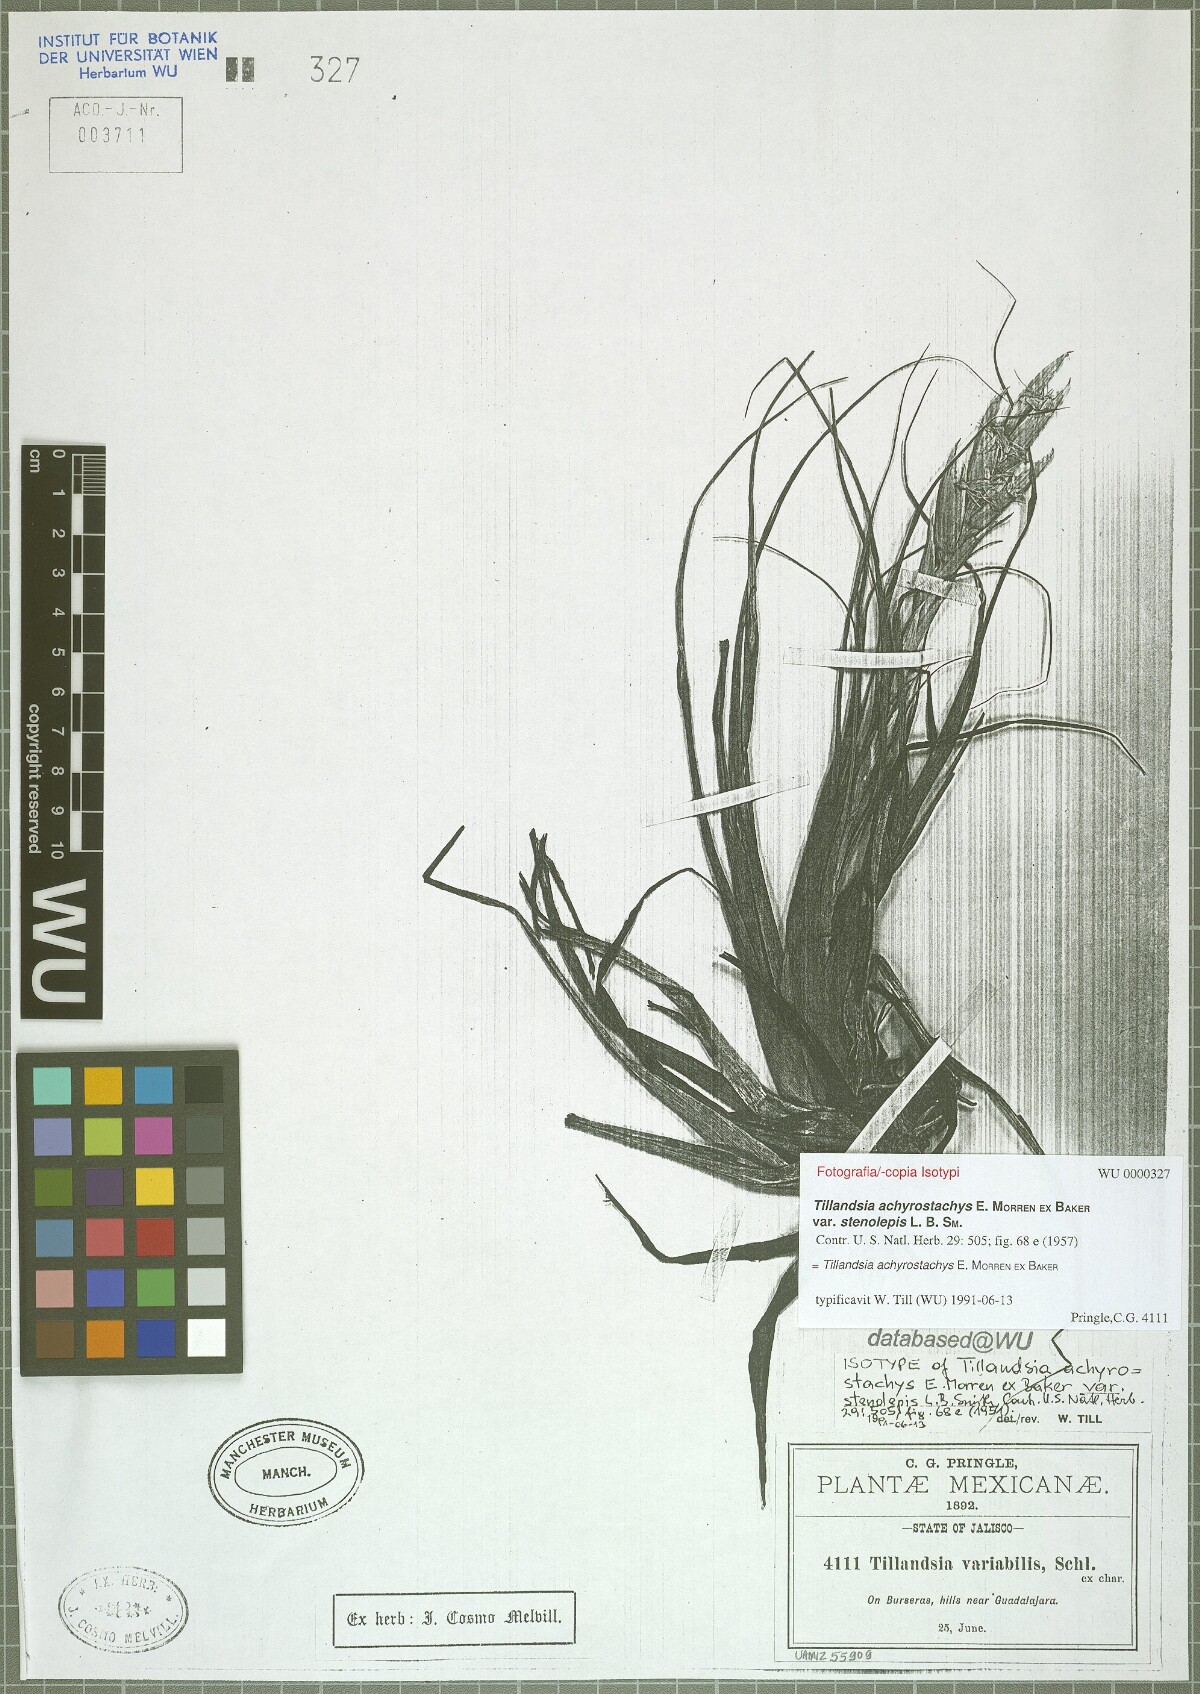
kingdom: Plantae
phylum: Tracheophyta
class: Liliopsida
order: Poales
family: Bromeliaceae
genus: Tillandsia
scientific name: Tillandsia achyrostachys
